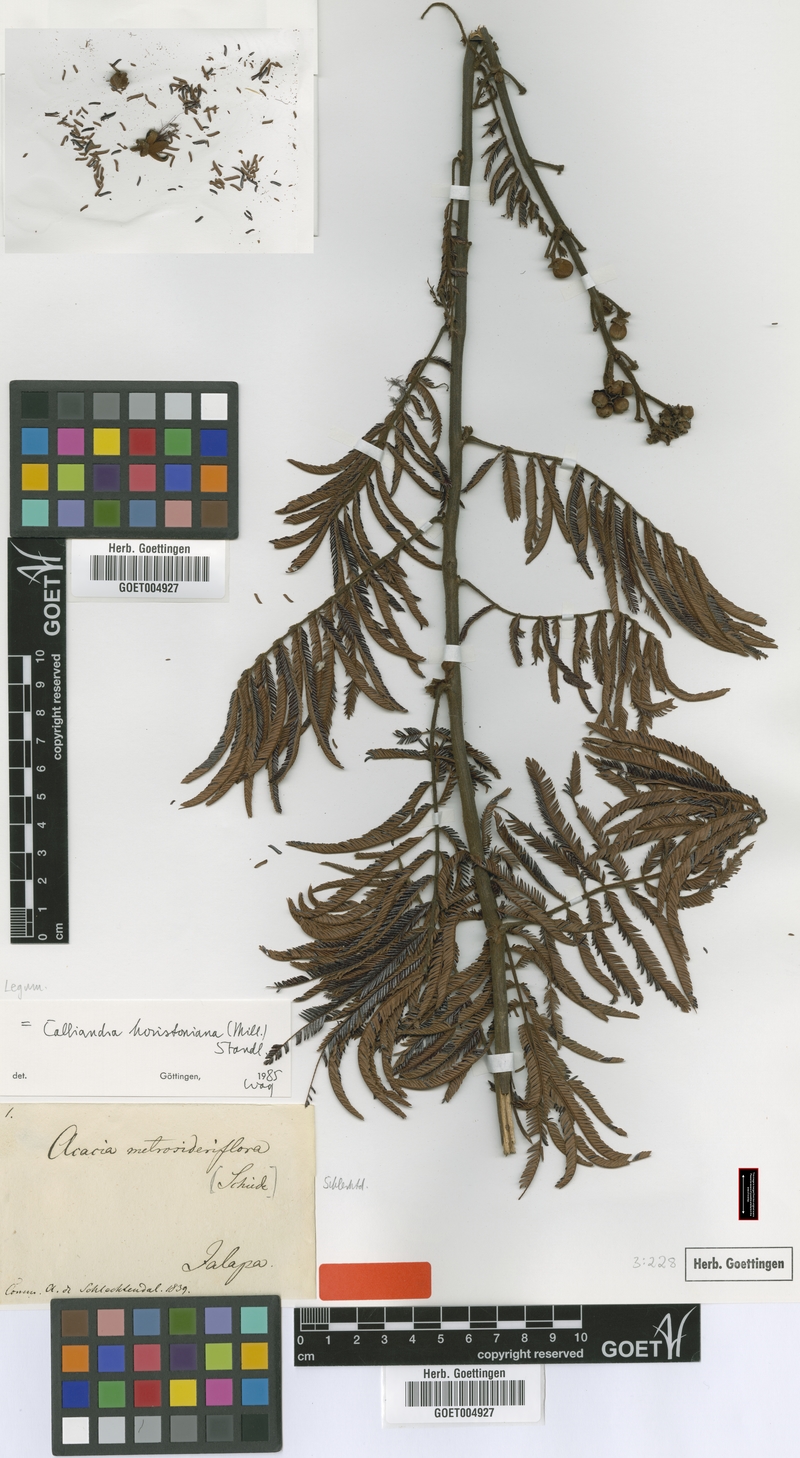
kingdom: Plantae
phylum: Tracheophyta
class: Magnoliopsida
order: Fabales
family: Fabaceae
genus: Calliandra
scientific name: Calliandra houstoniana
